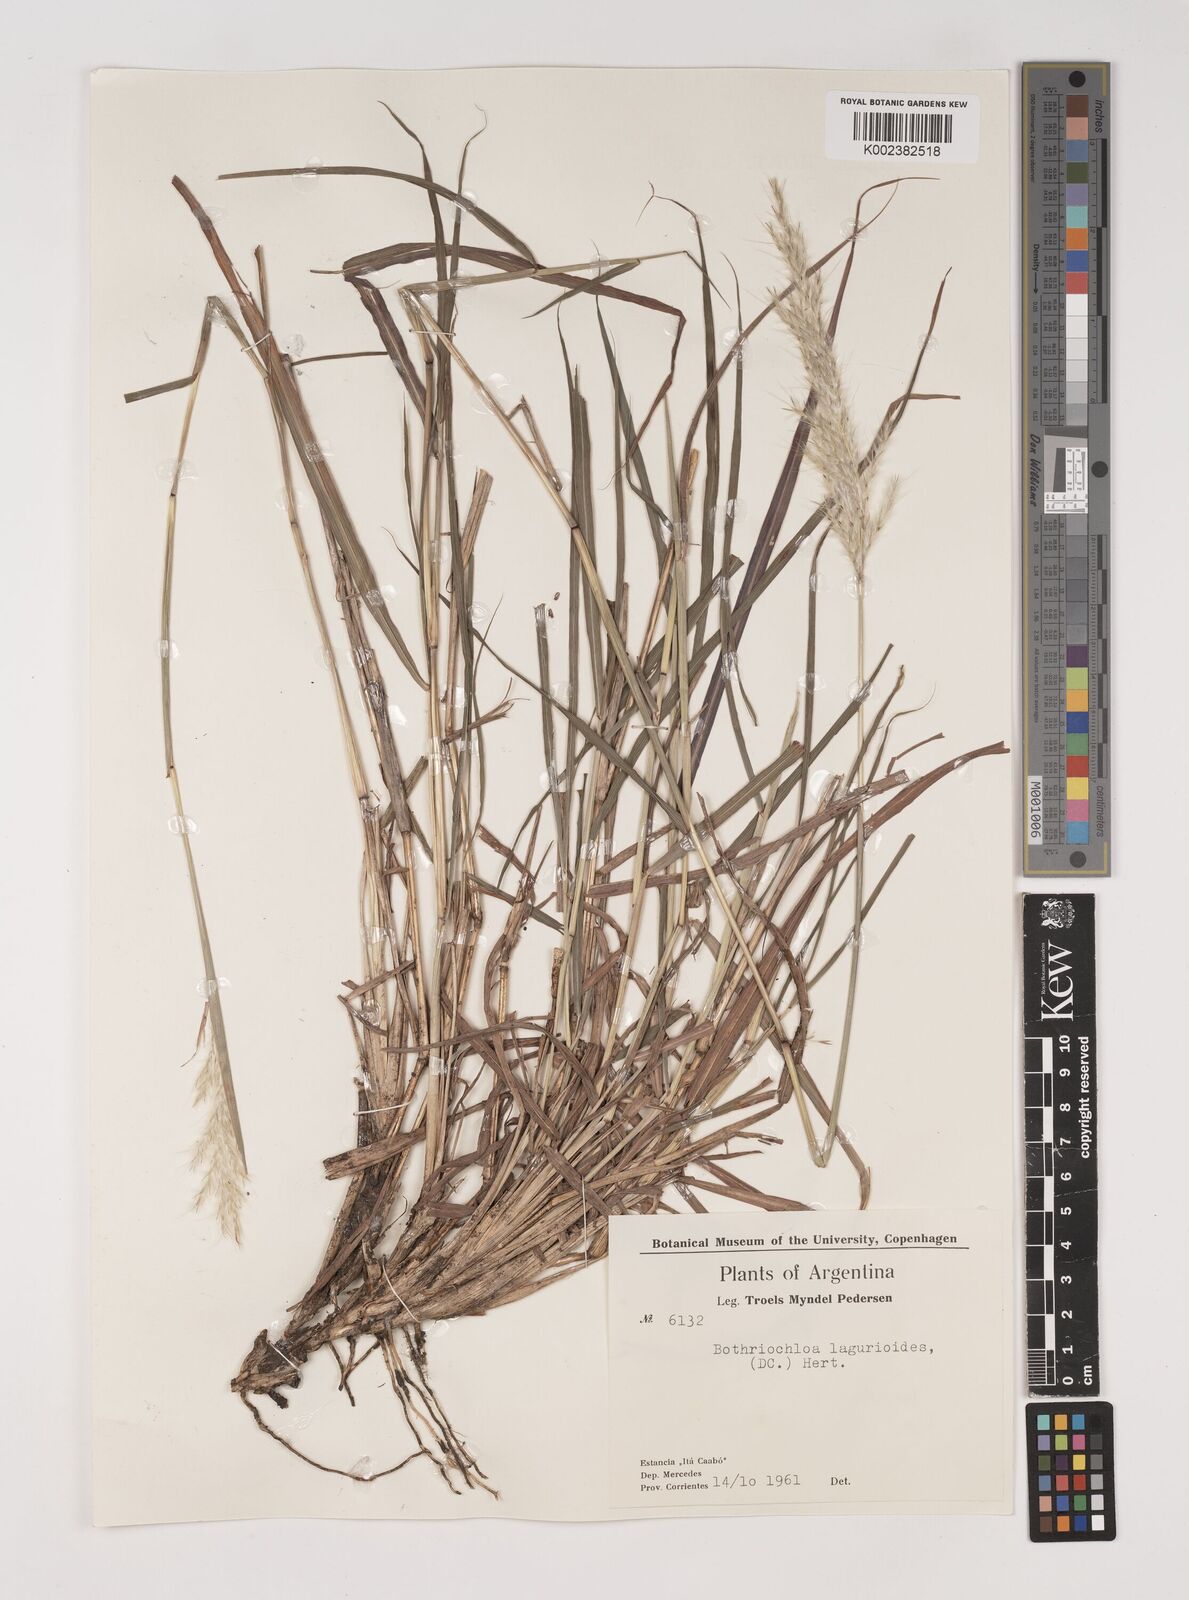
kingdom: Plantae
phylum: Tracheophyta
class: Liliopsida
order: Poales
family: Poaceae
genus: Bothriochloa
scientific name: Bothriochloa laguroides
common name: Silver bluestem
